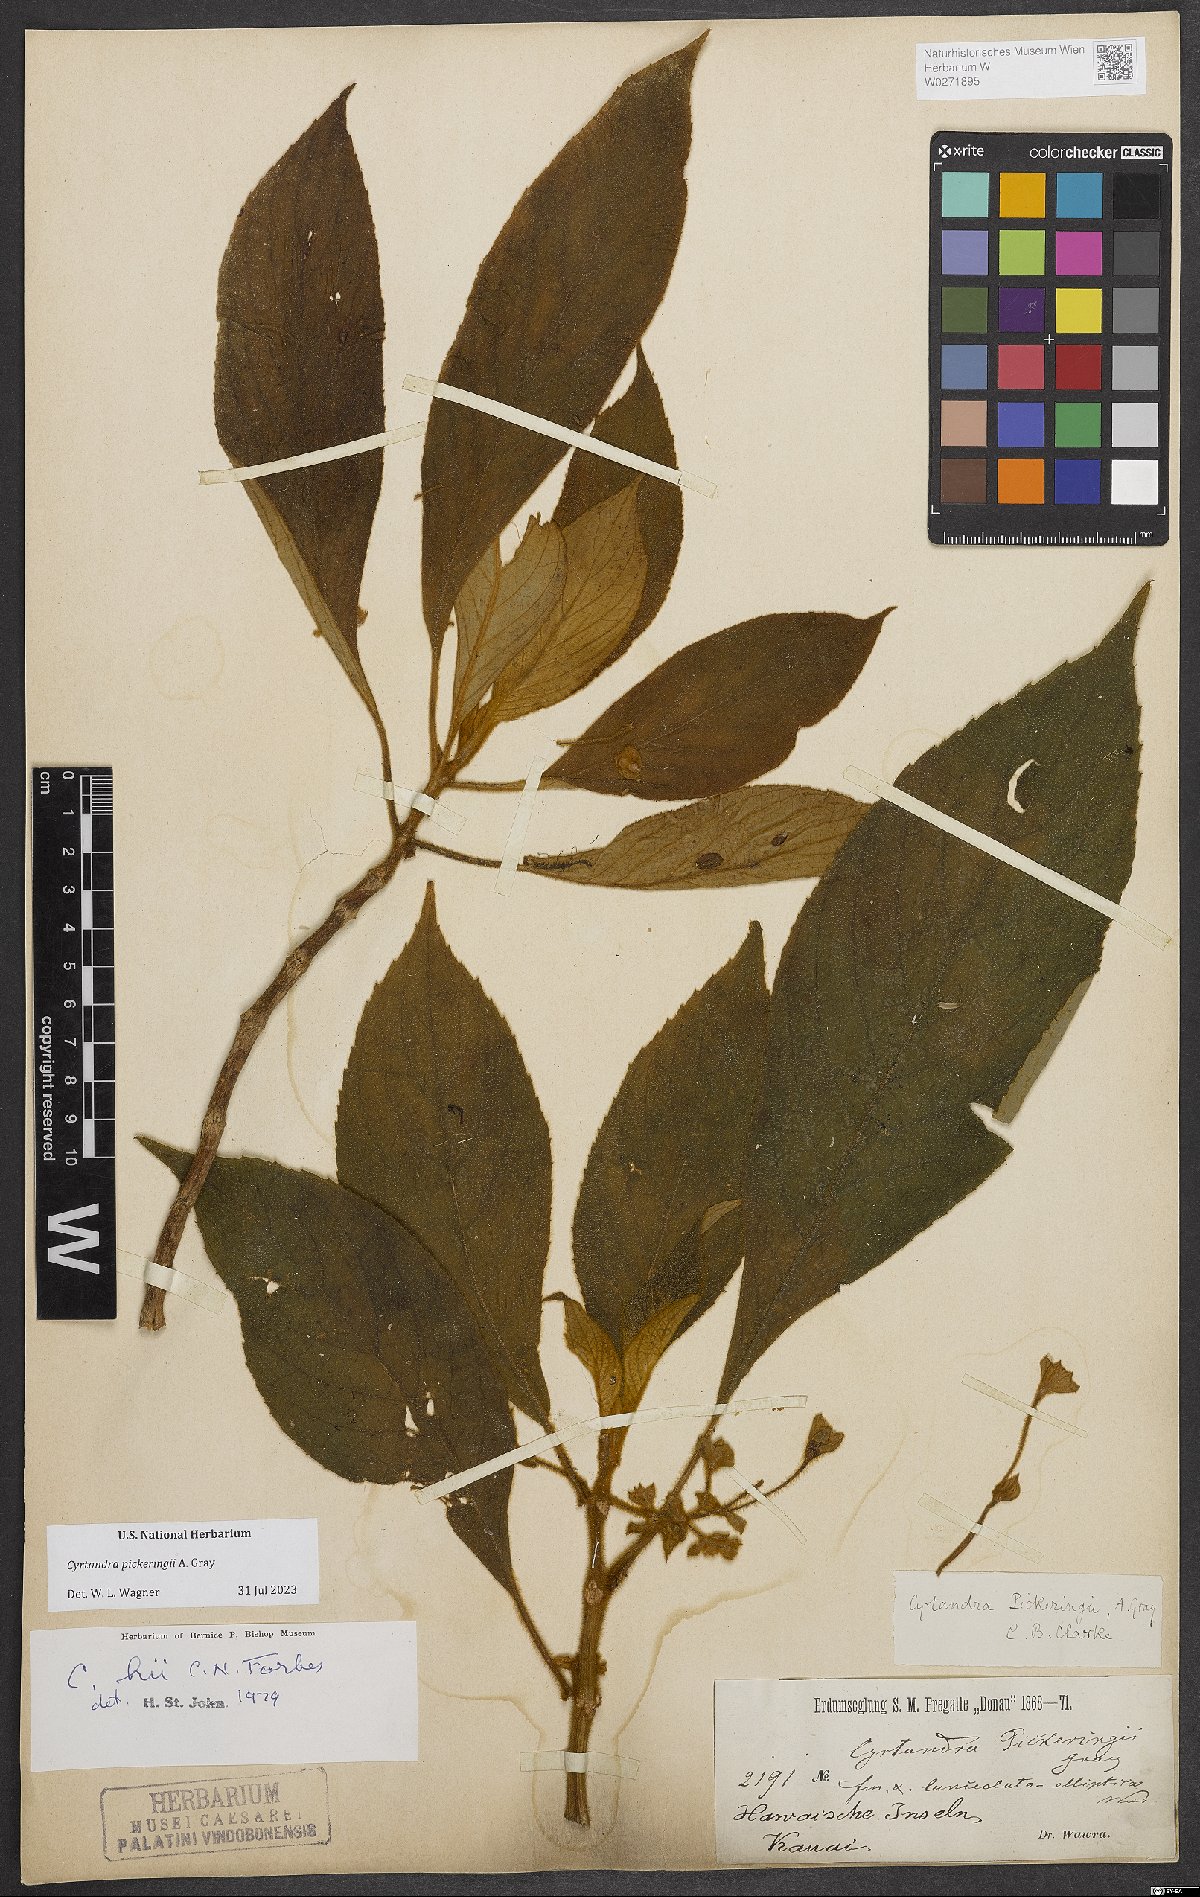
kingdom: Plantae
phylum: Tracheophyta
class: Magnoliopsida
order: Lamiales
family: Gesneriaceae
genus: Cyrtandra
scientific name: Cyrtandra pickeringii
